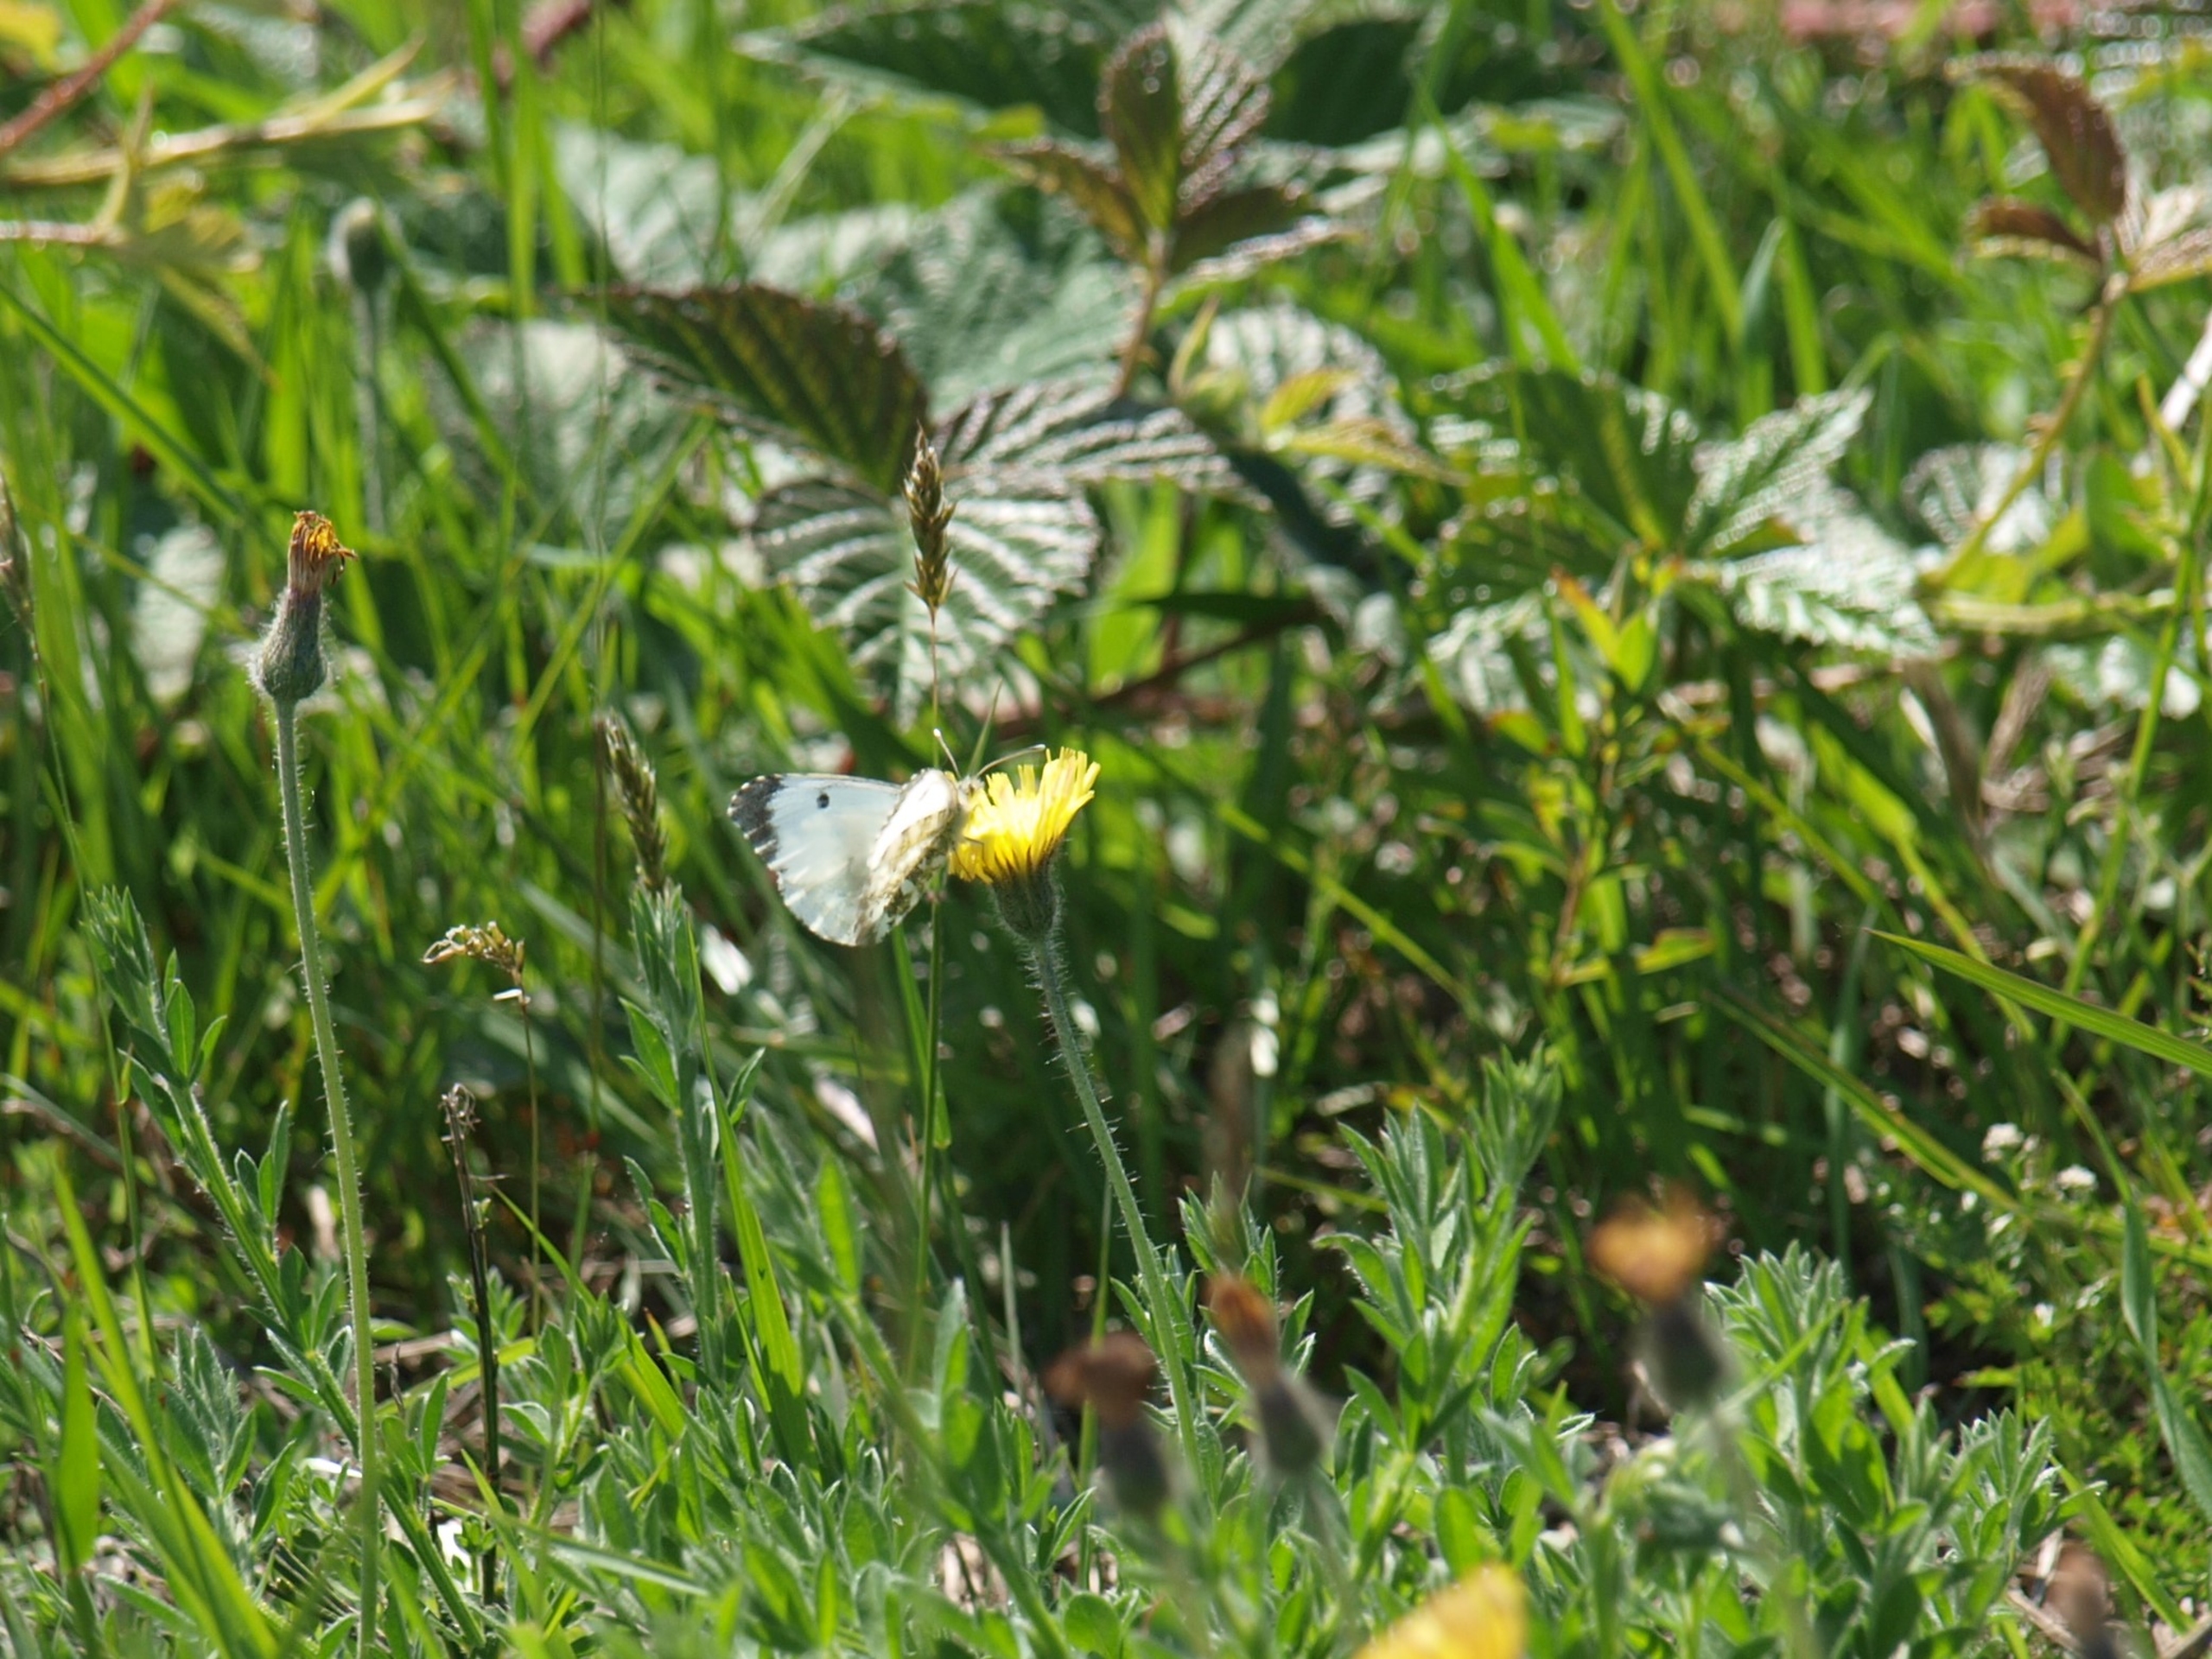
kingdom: Animalia
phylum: Arthropoda
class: Insecta
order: Lepidoptera
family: Pieridae
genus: Anthocharis
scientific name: Anthocharis cardamines
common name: Aurora
